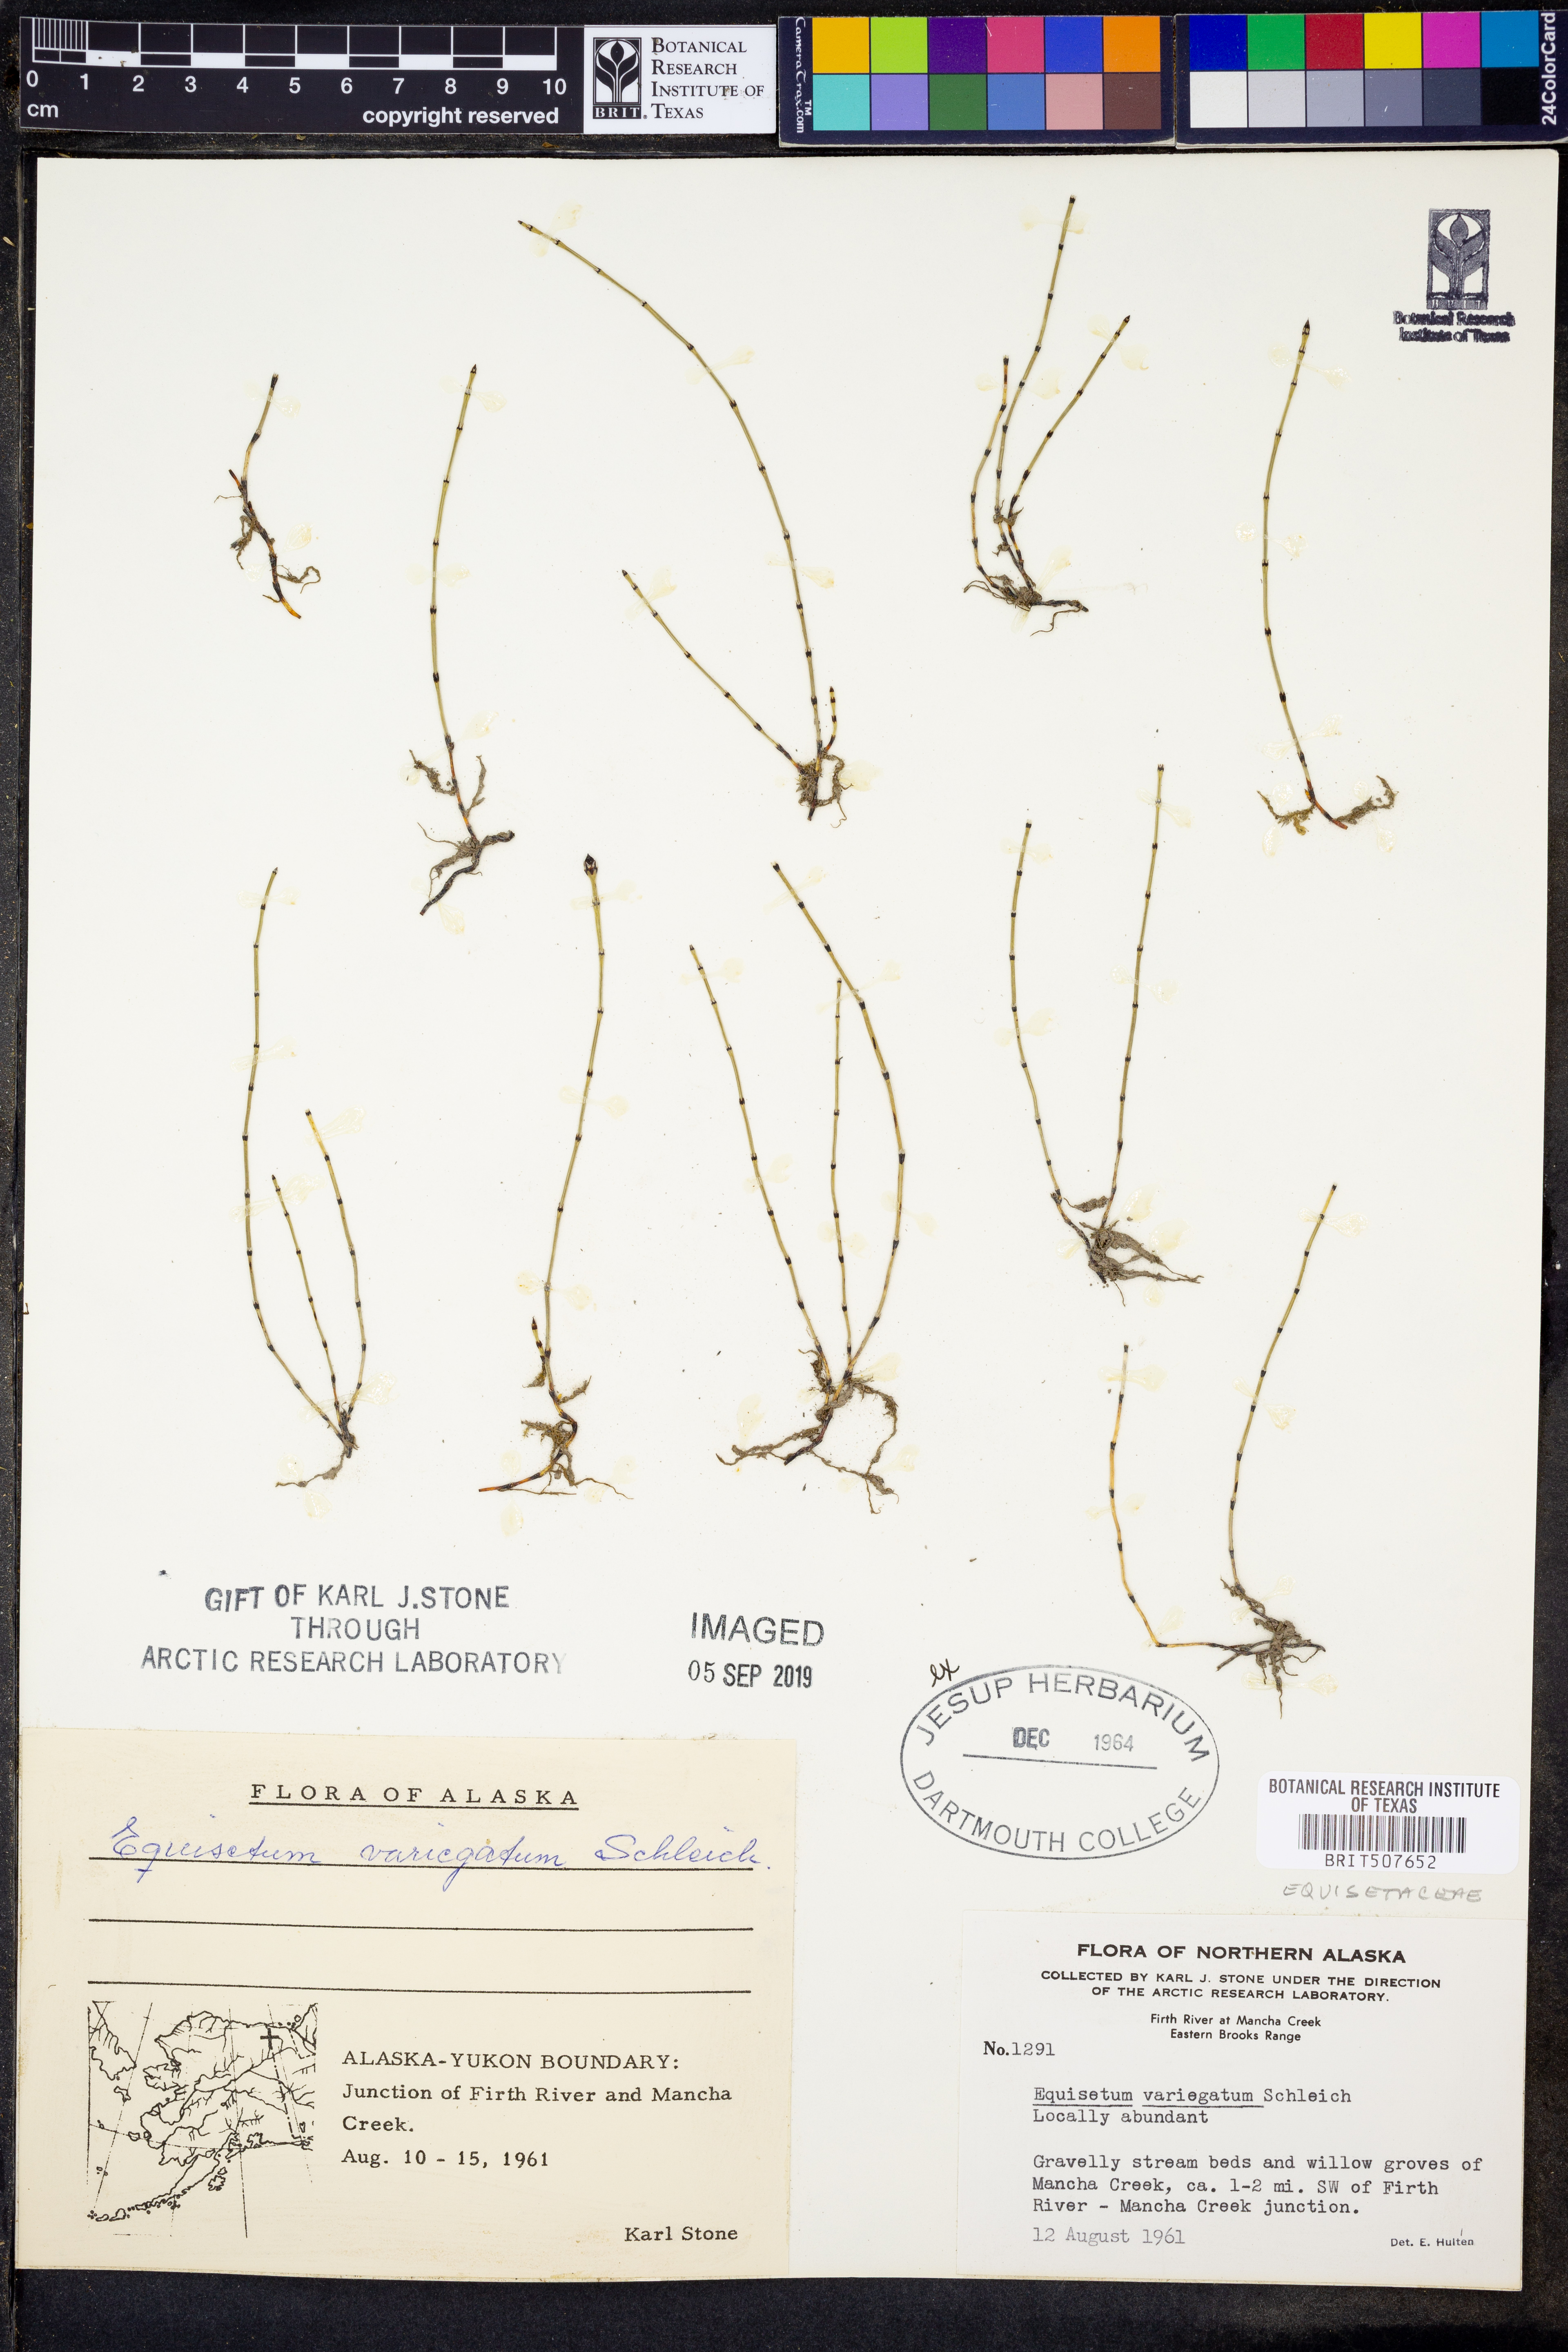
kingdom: Plantae
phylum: Tracheophyta
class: Polypodiopsida
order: Equisetales
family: Equisetaceae
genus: Equisetum
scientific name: Equisetum variegatum
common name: Variegated horsetail
